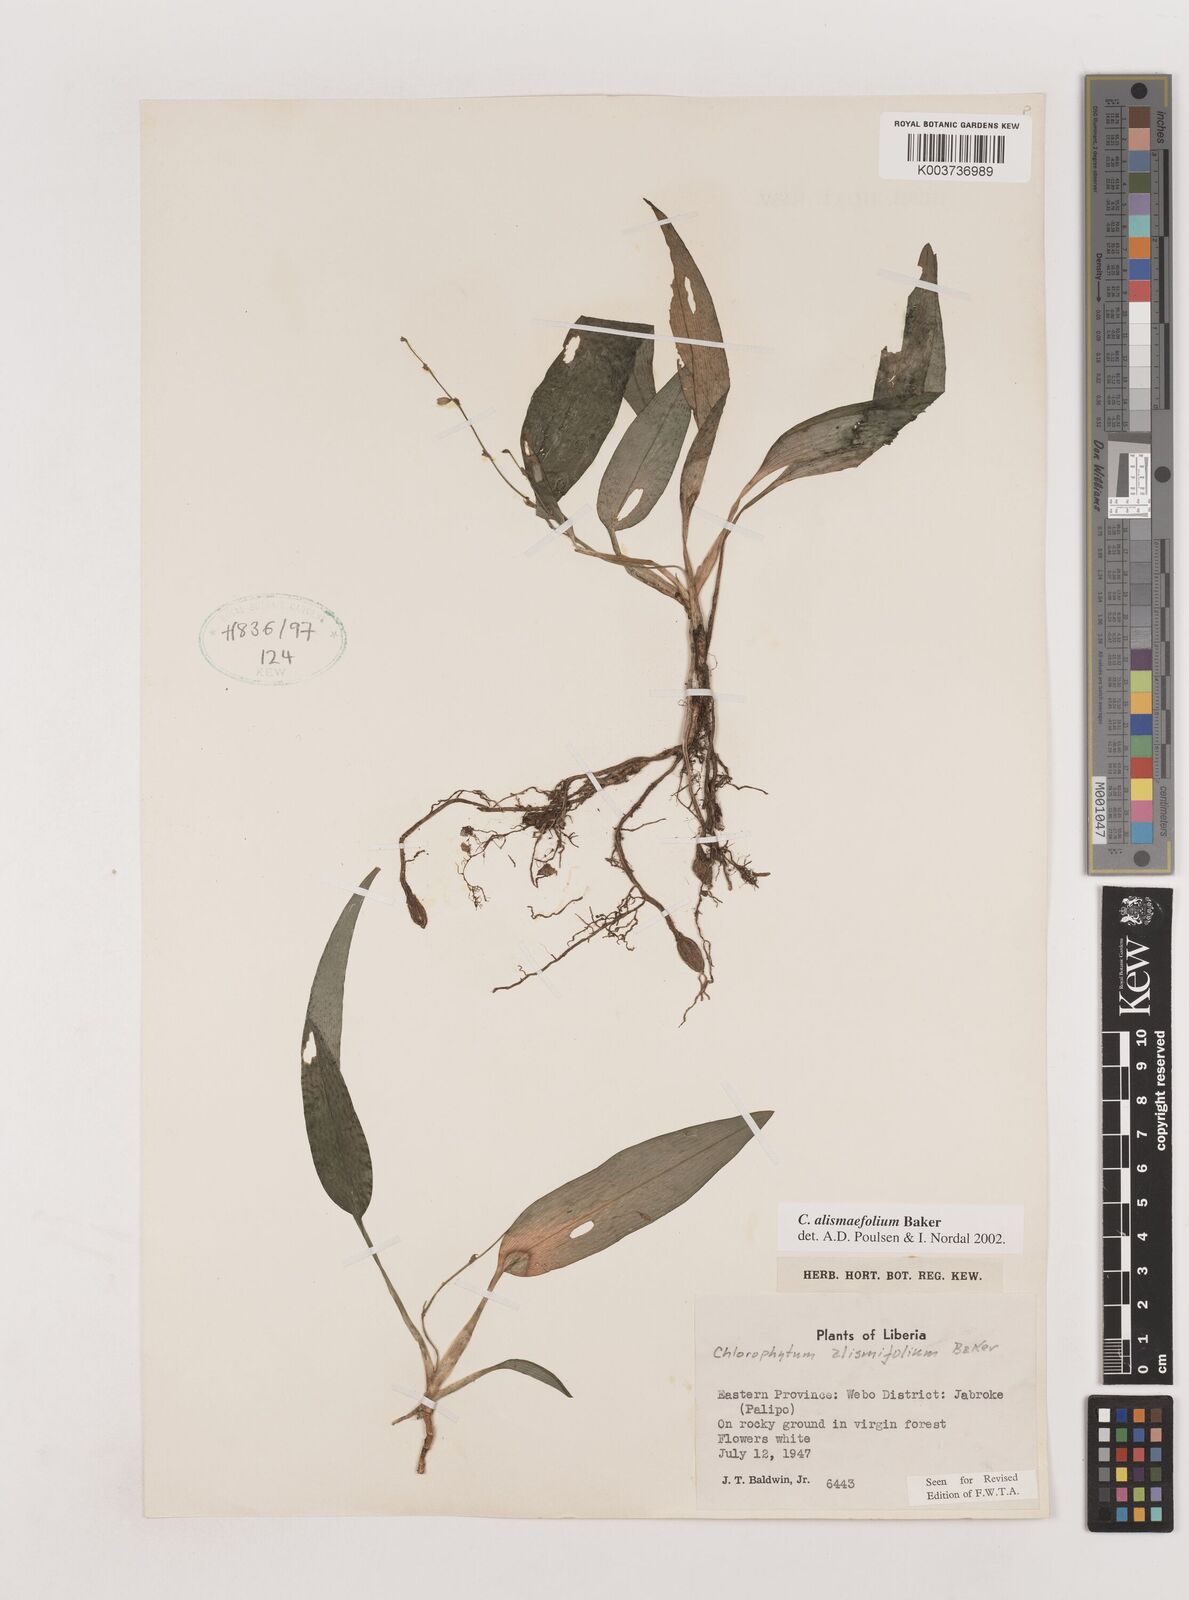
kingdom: Plantae
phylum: Tracheophyta
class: Liliopsida
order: Asparagales
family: Asparagaceae
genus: Chlorophytum
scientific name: Chlorophytum alismifolium
